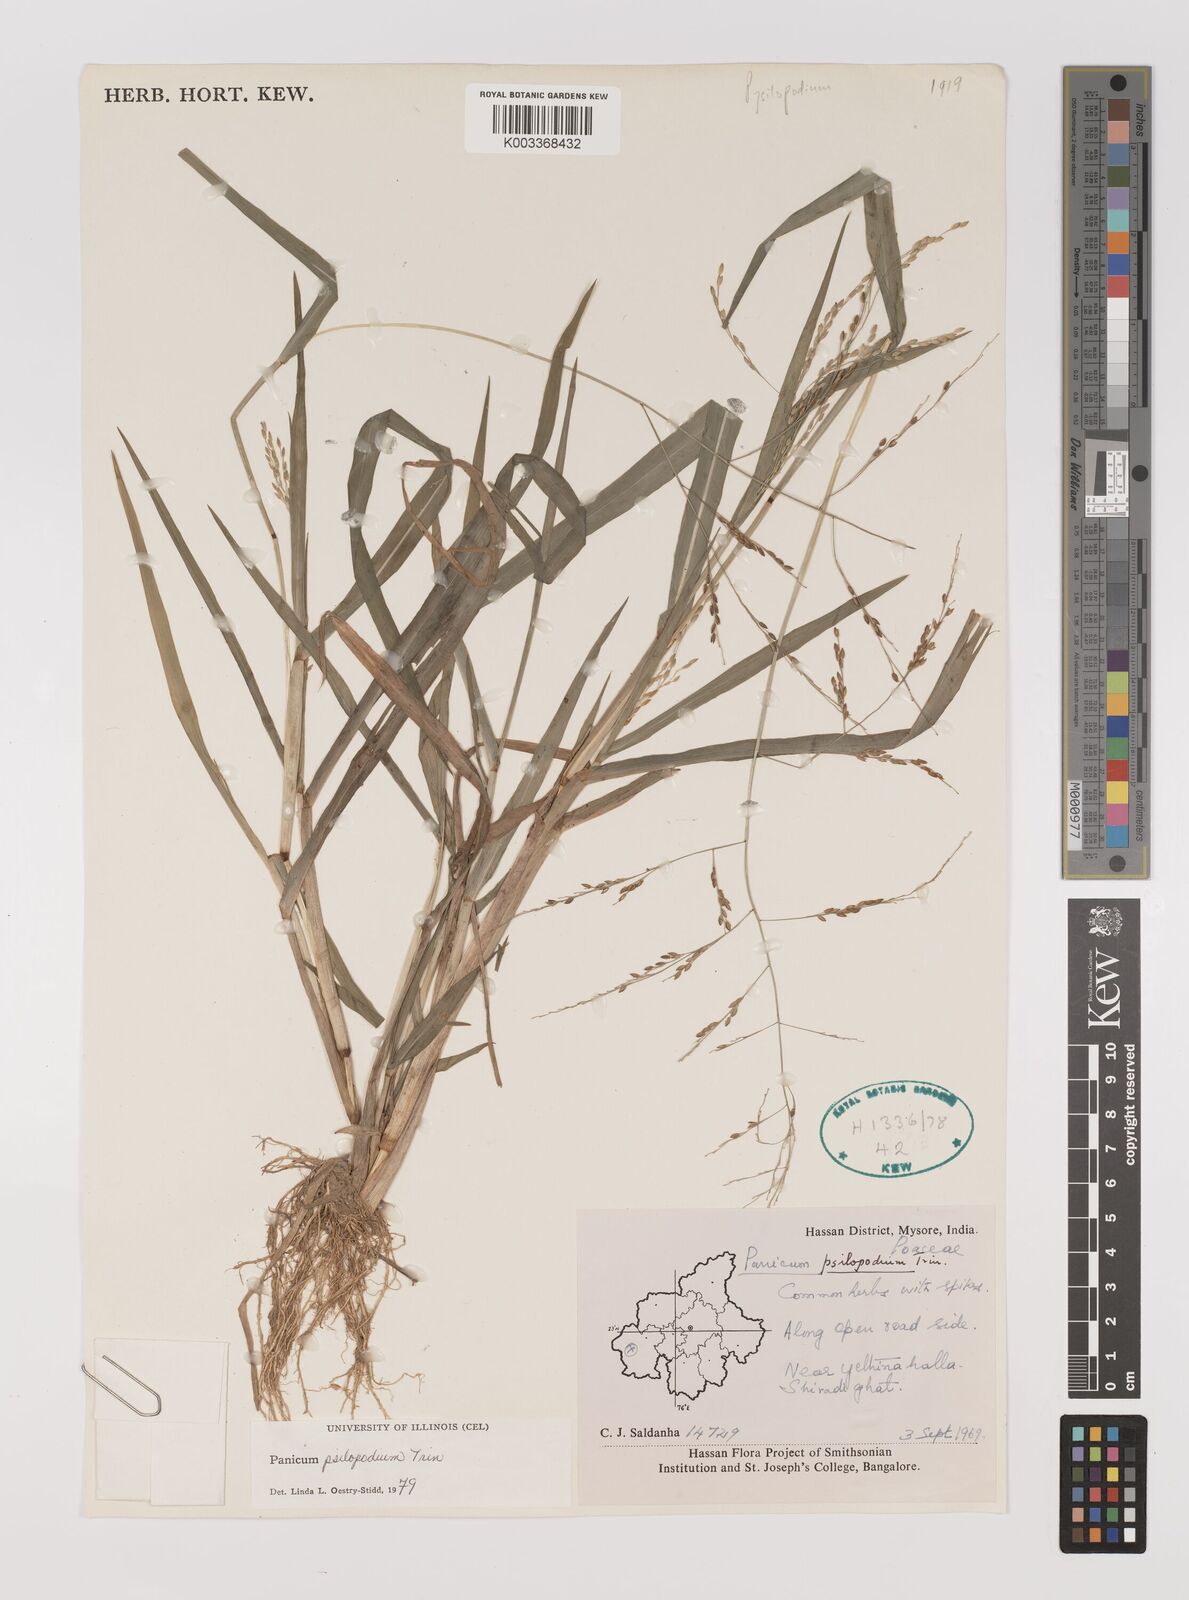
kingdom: Plantae
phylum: Tracheophyta
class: Liliopsida
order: Poales
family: Poaceae
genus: Panicum
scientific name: Panicum sumatrense
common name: Little millet
